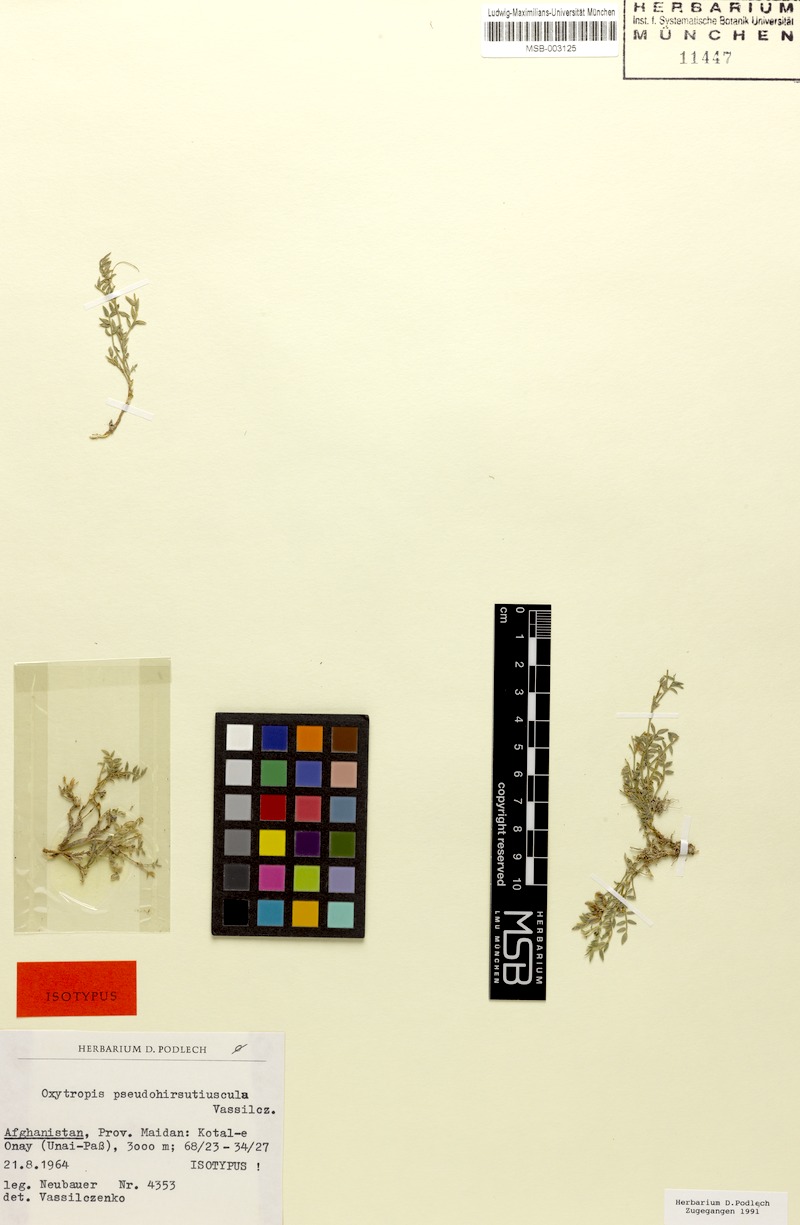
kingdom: Plantae
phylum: Tracheophyta
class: Magnoliopsida
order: Fabales
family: Fabaceae
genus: Oxytropis
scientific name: Oxytropis hypoglottoides
